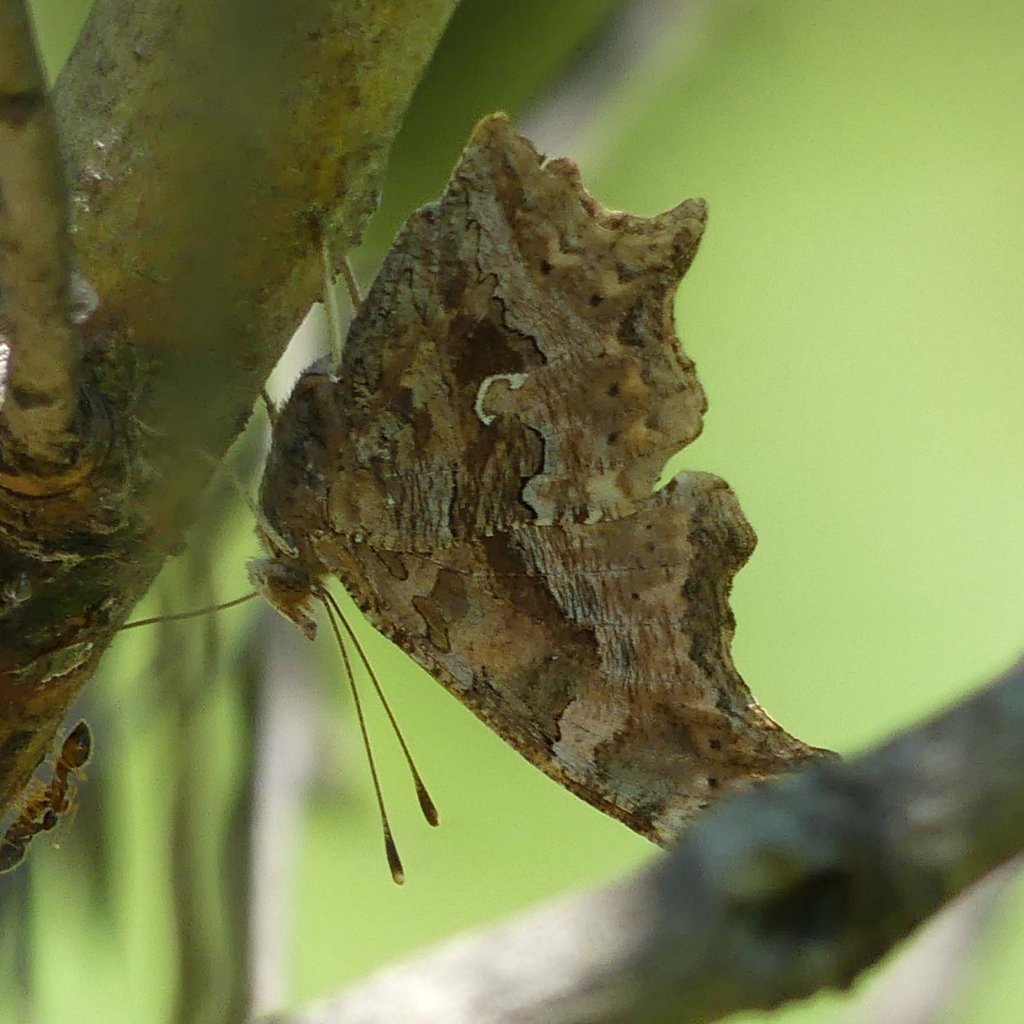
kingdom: Animalia
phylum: Arthropoda
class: Insecta
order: Lepidoptera
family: Nymphalidae
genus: Polygonia
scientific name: Polygonia comma
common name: Eastern Comma
